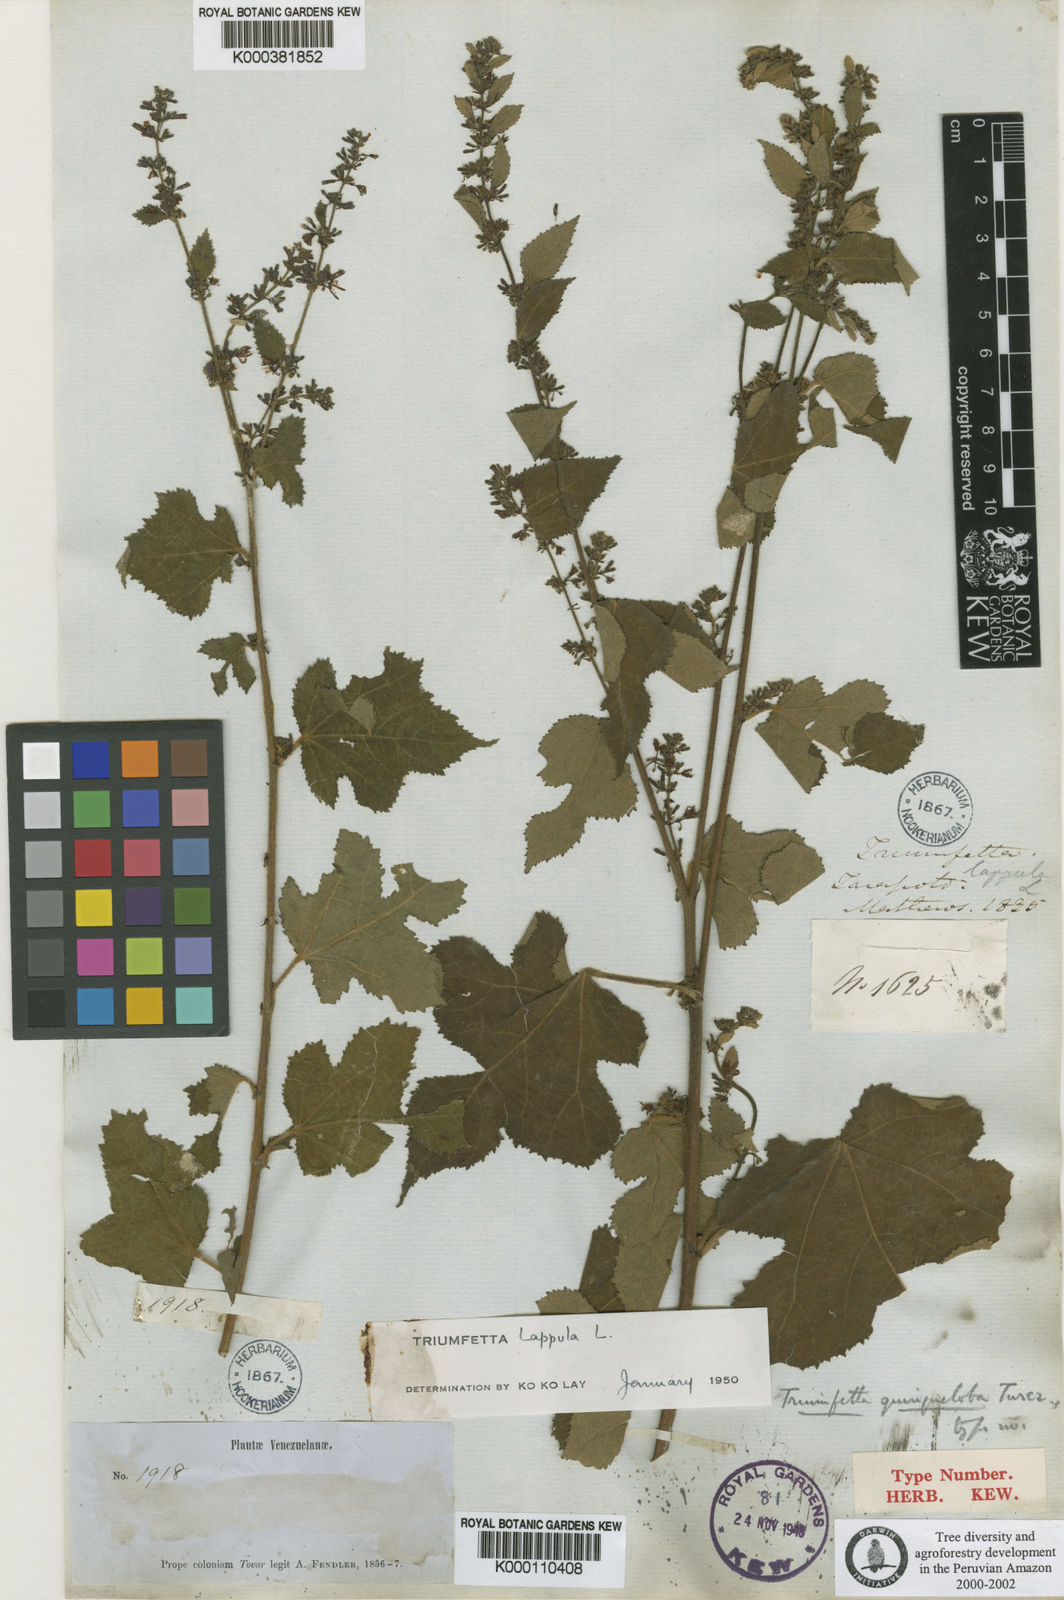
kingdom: Plantae
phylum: Tracheophyta
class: Magnoliopsida
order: Malvales
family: Malvaceae
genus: Triumfetta
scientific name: Triumfetta lappula
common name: Burbark
